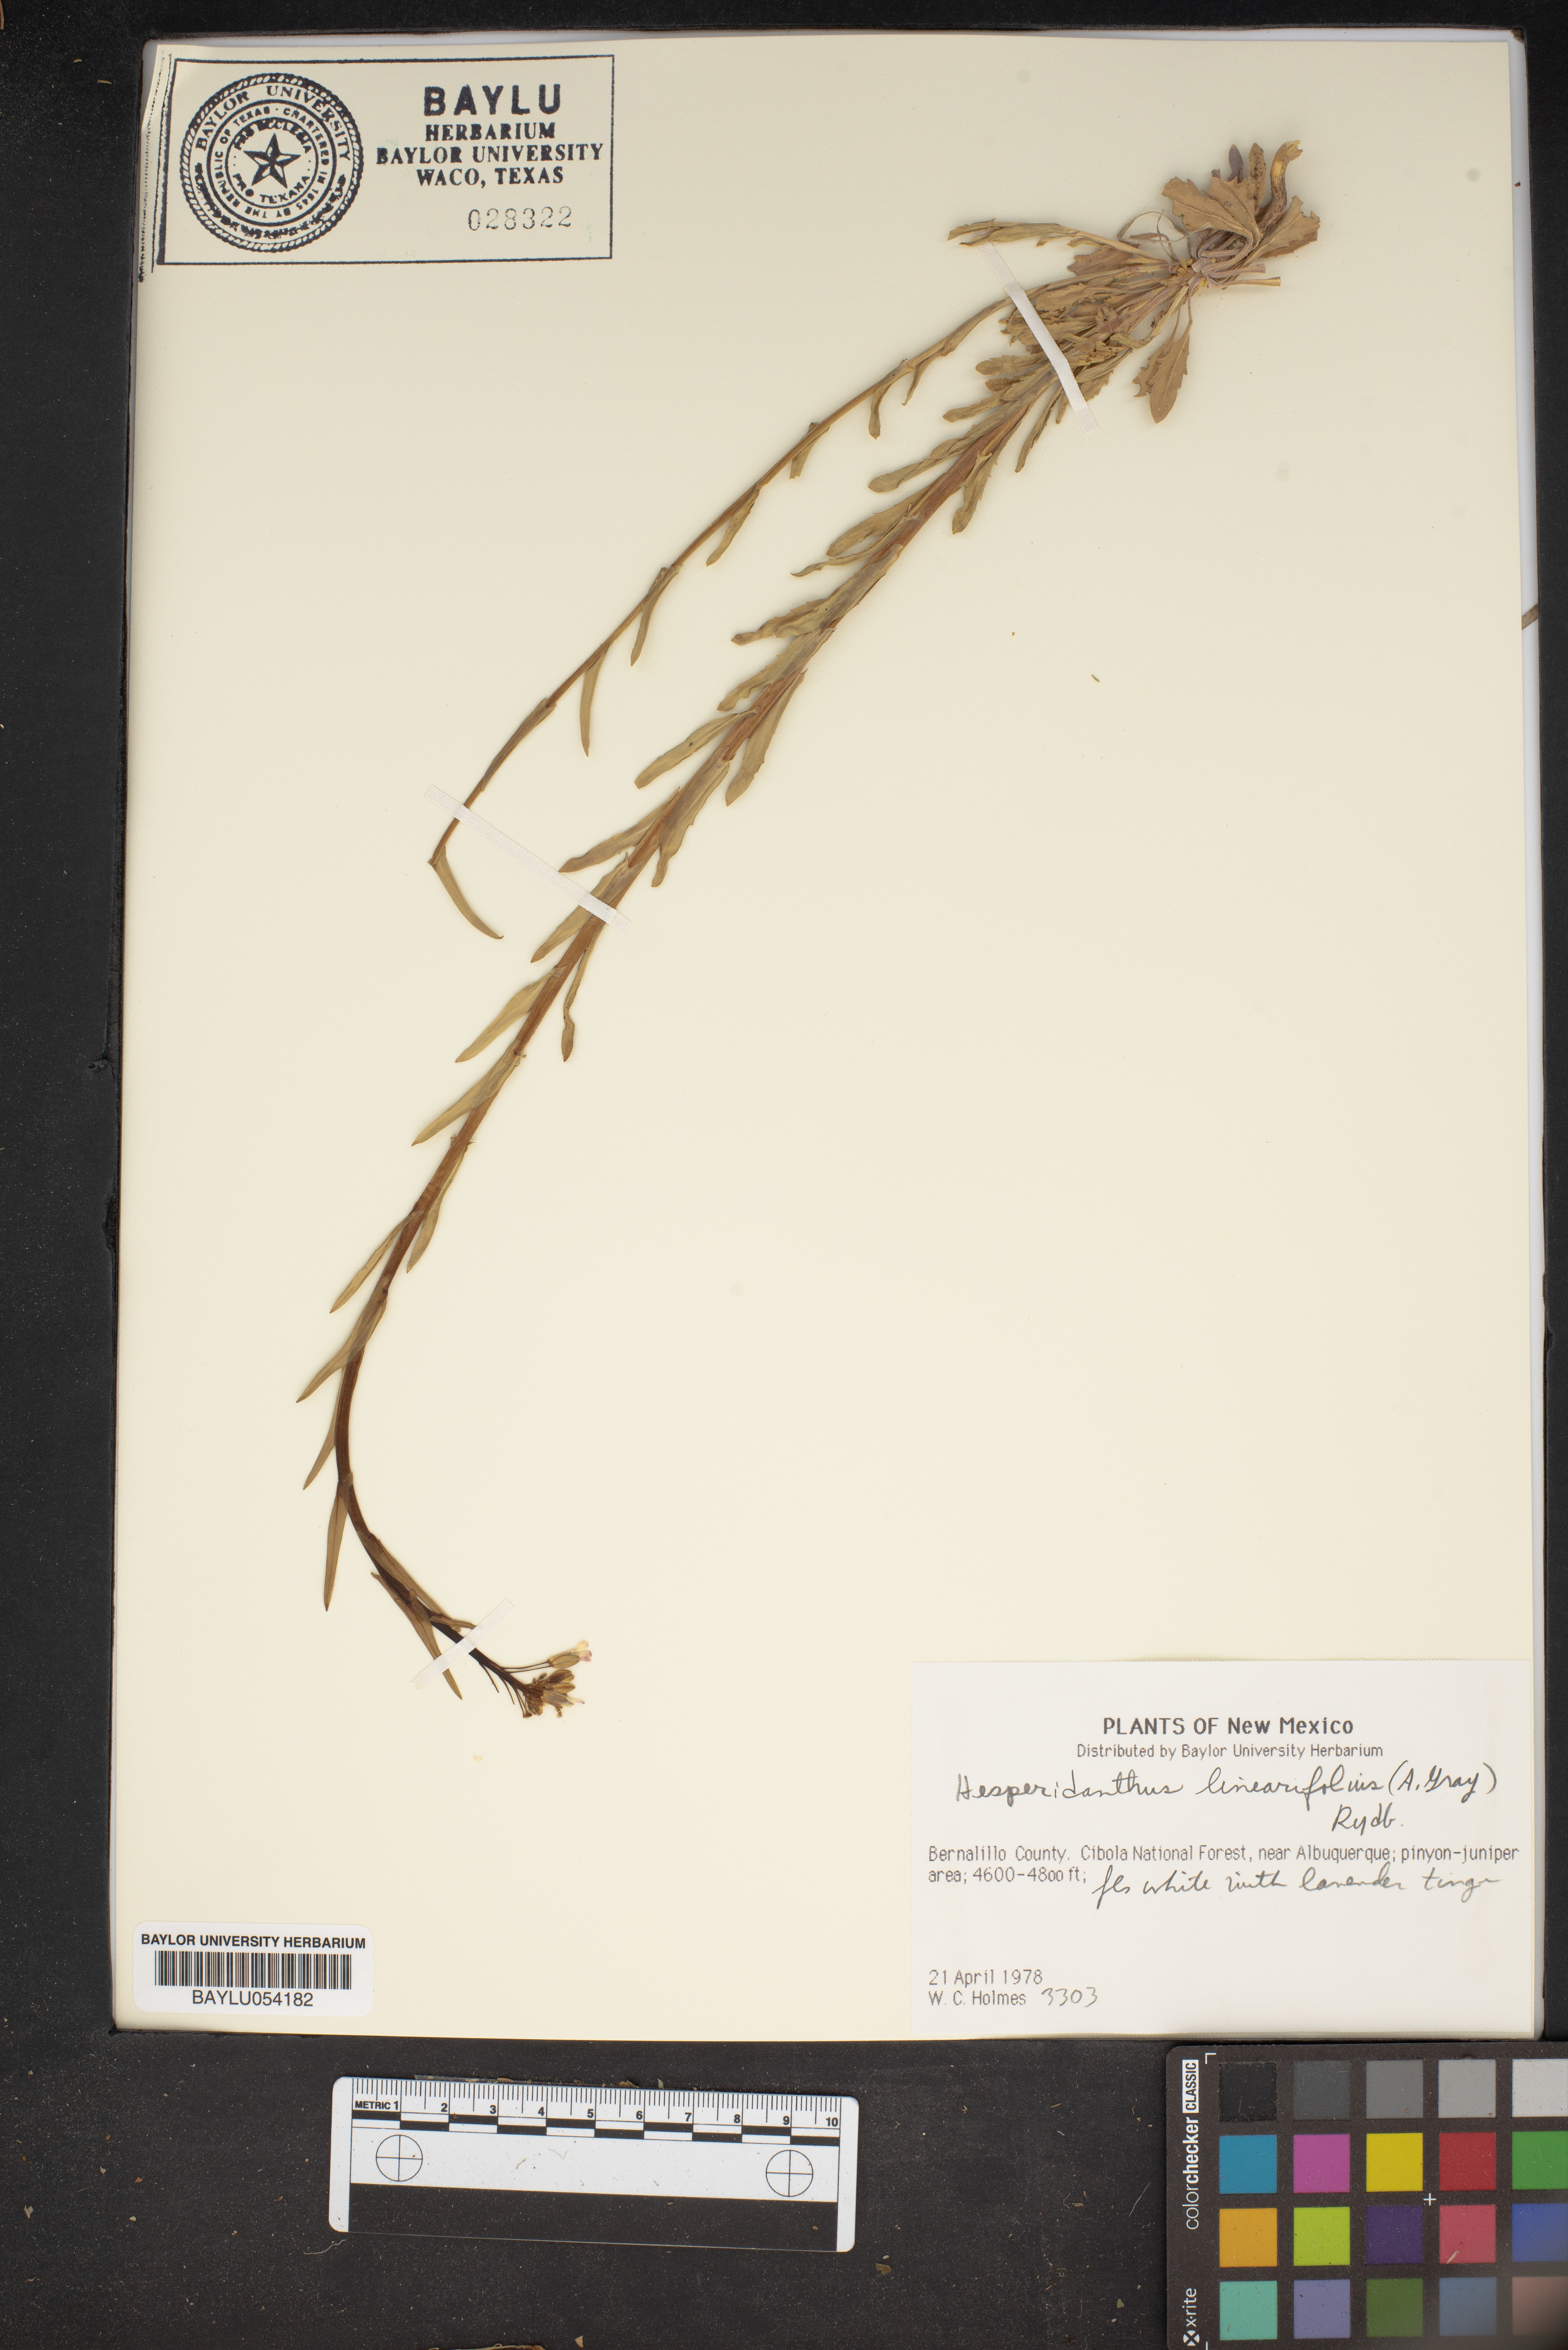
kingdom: Plantae
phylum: Tracheophyta
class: Magnoliopsida
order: Brassicales
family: Brassicaceae
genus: Hesperidanthus
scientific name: Hesperidanthus linearifolius
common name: Slim-leaf plains mustard
